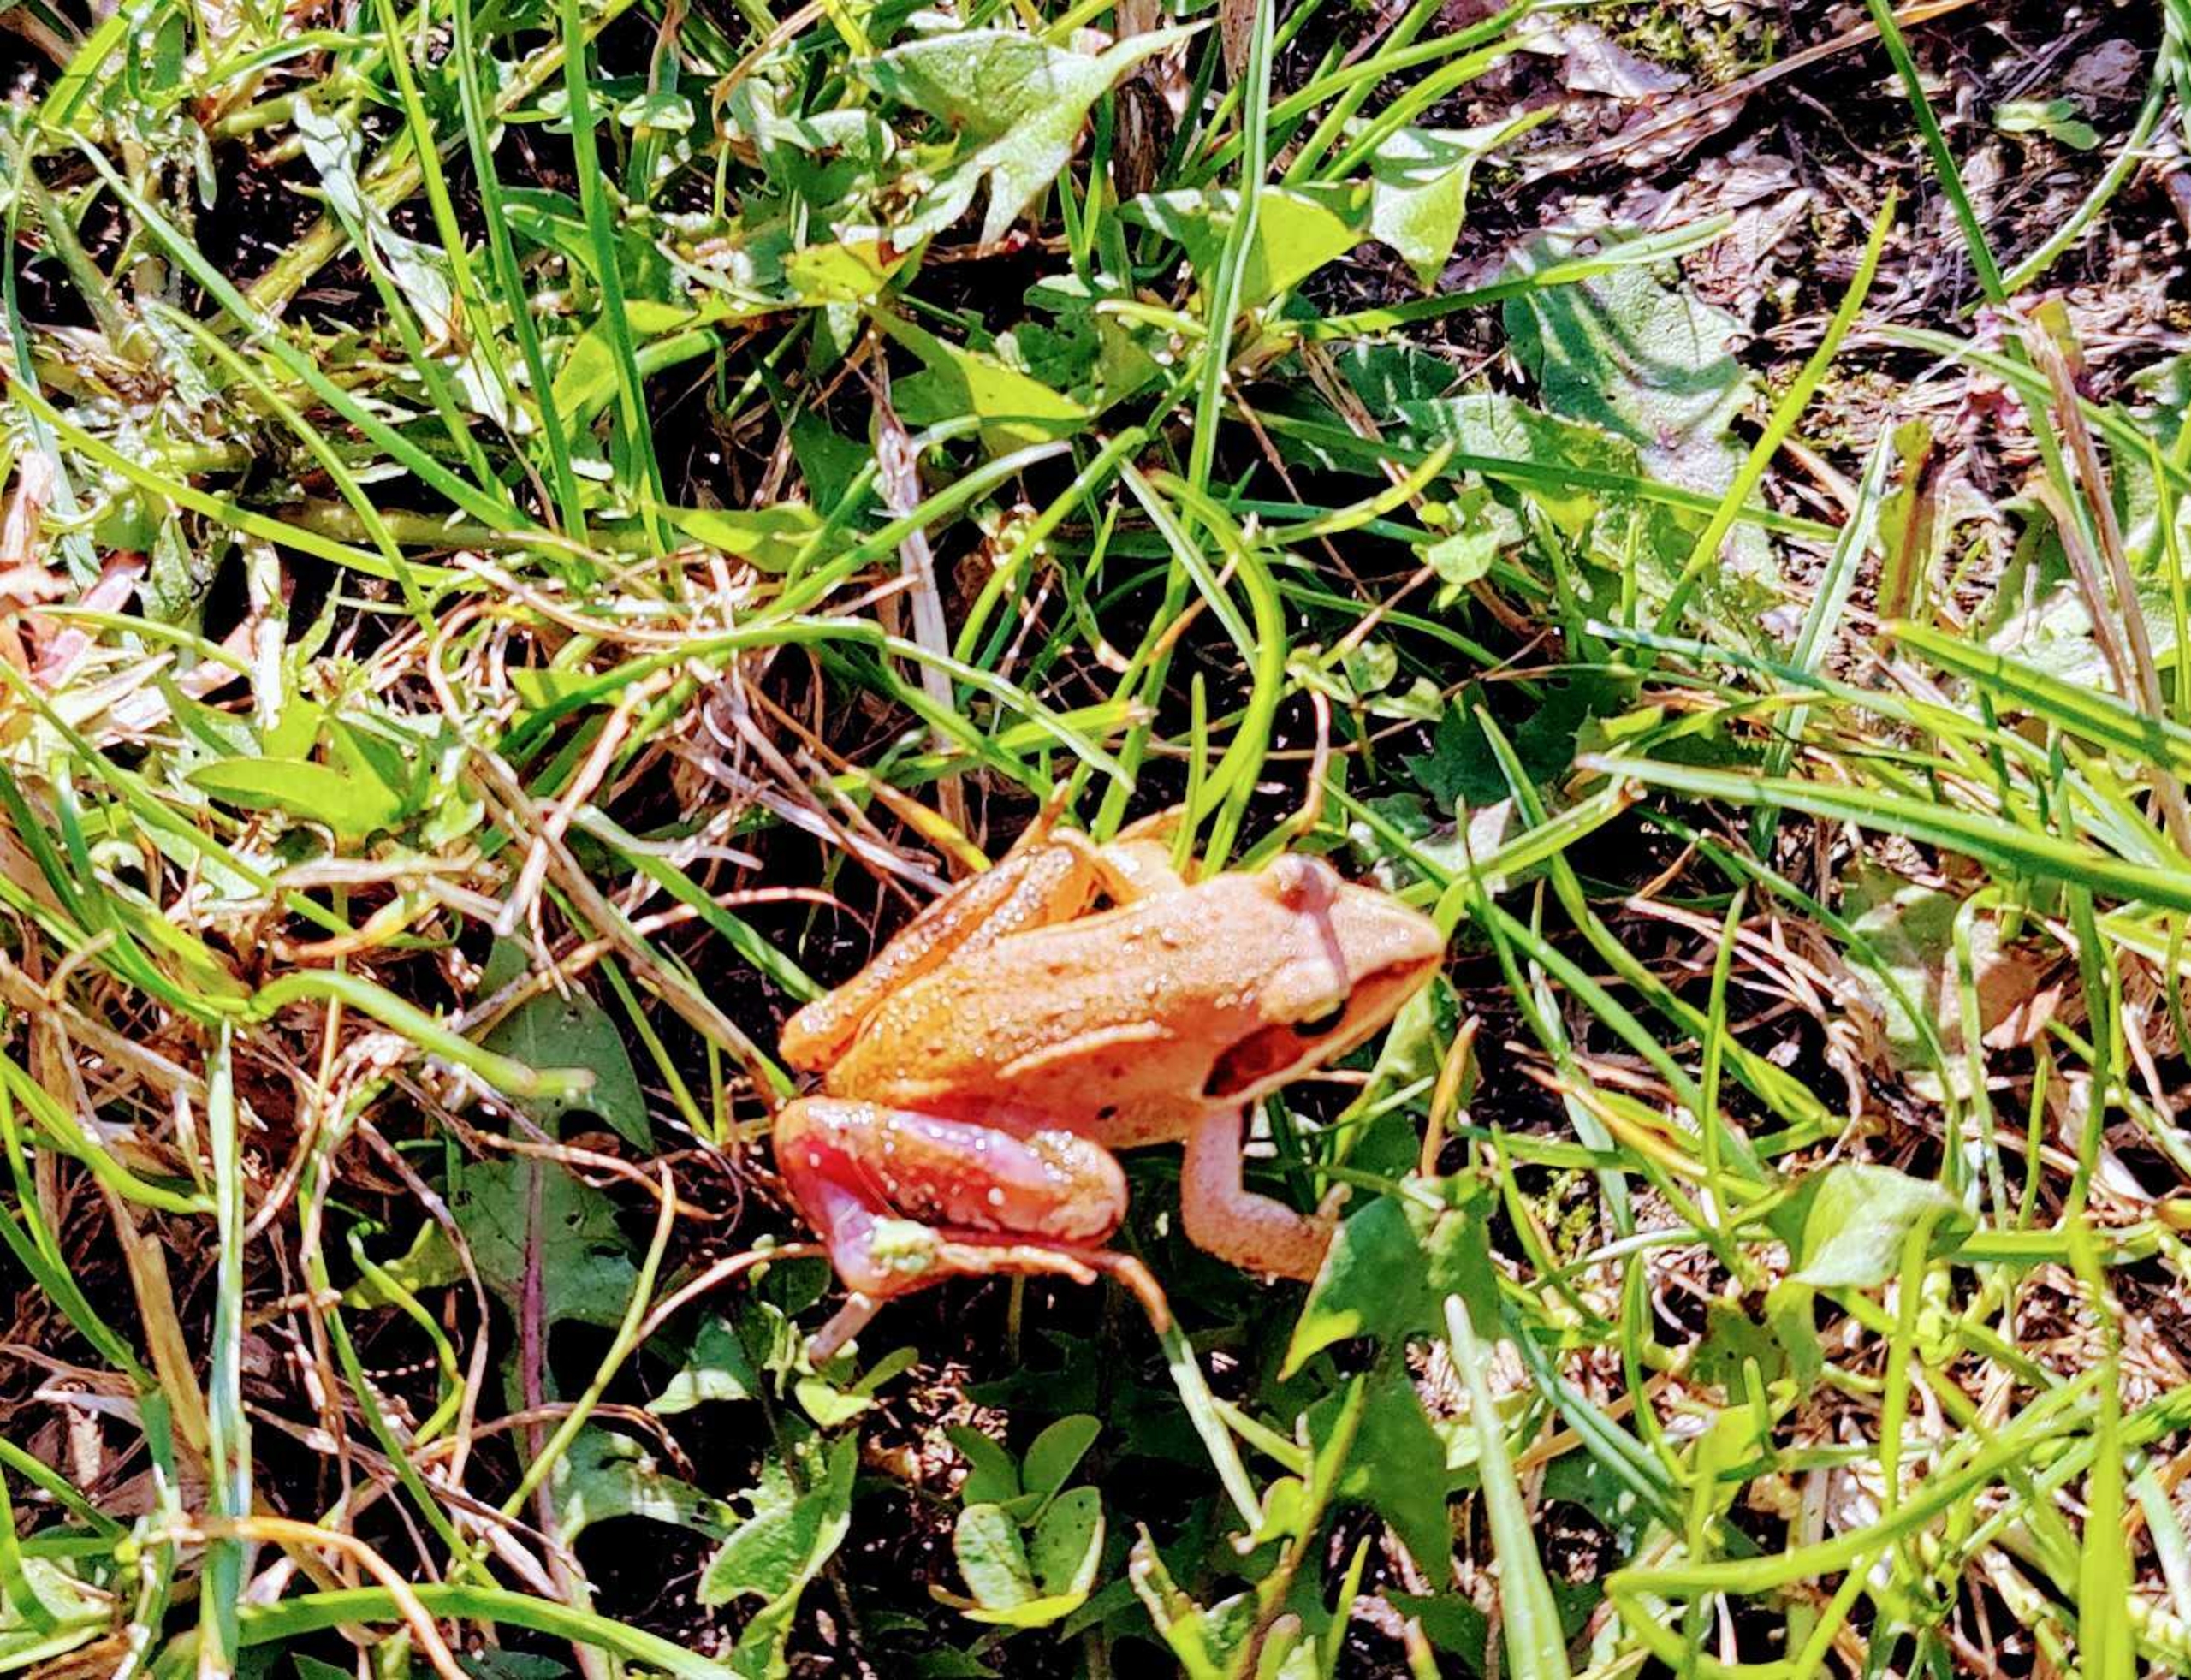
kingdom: Animalia
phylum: Chordata
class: Amphibia
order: Anura
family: Ranidae
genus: Rana
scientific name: Rana dalmatina
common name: Springfrø
